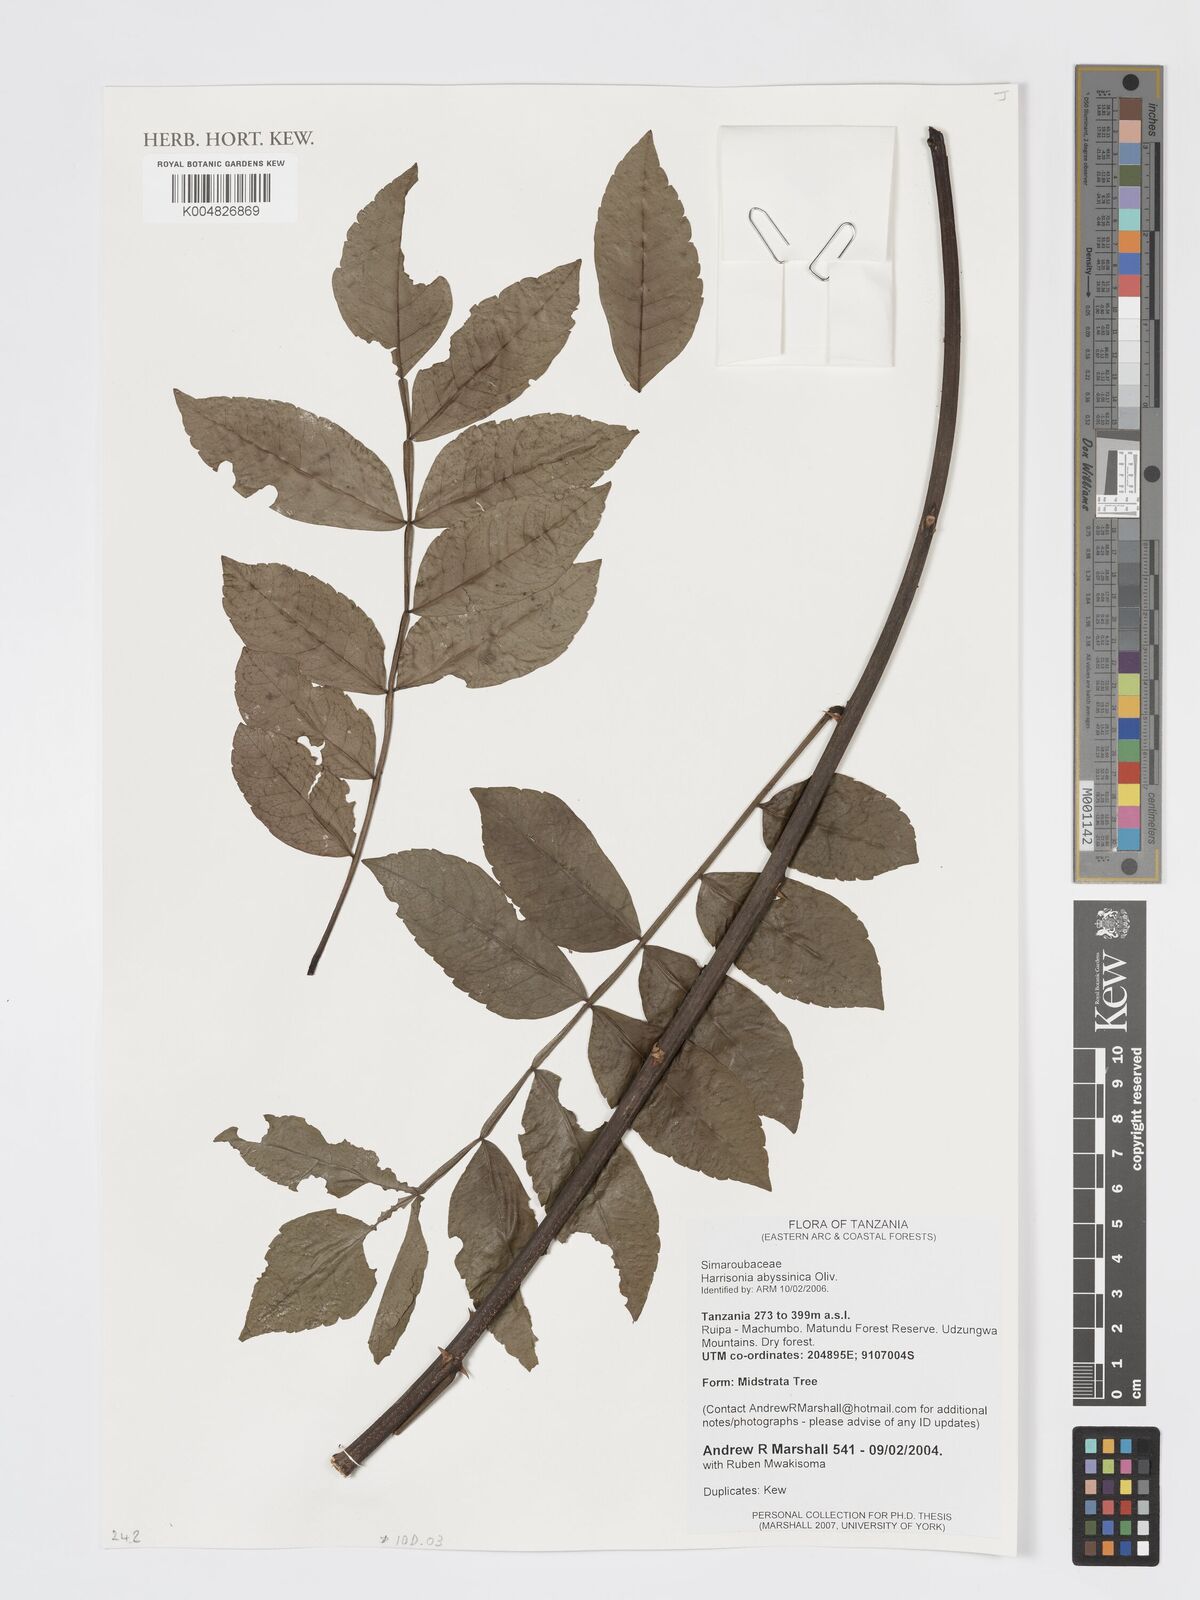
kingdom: Plantae
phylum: Tracheophyta
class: Magnoliopsida
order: Sapindales
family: Rutaceae
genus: Harrisonia
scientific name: Harrisonia abyssinica
